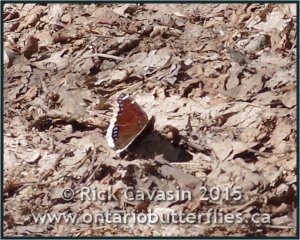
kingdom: Animalia
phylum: Arthropoda
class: Insecta
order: Lepidoptera
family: Nymphalidae
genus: Nymphalis
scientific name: Nymphalis antiopa
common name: Mourning Cloak
